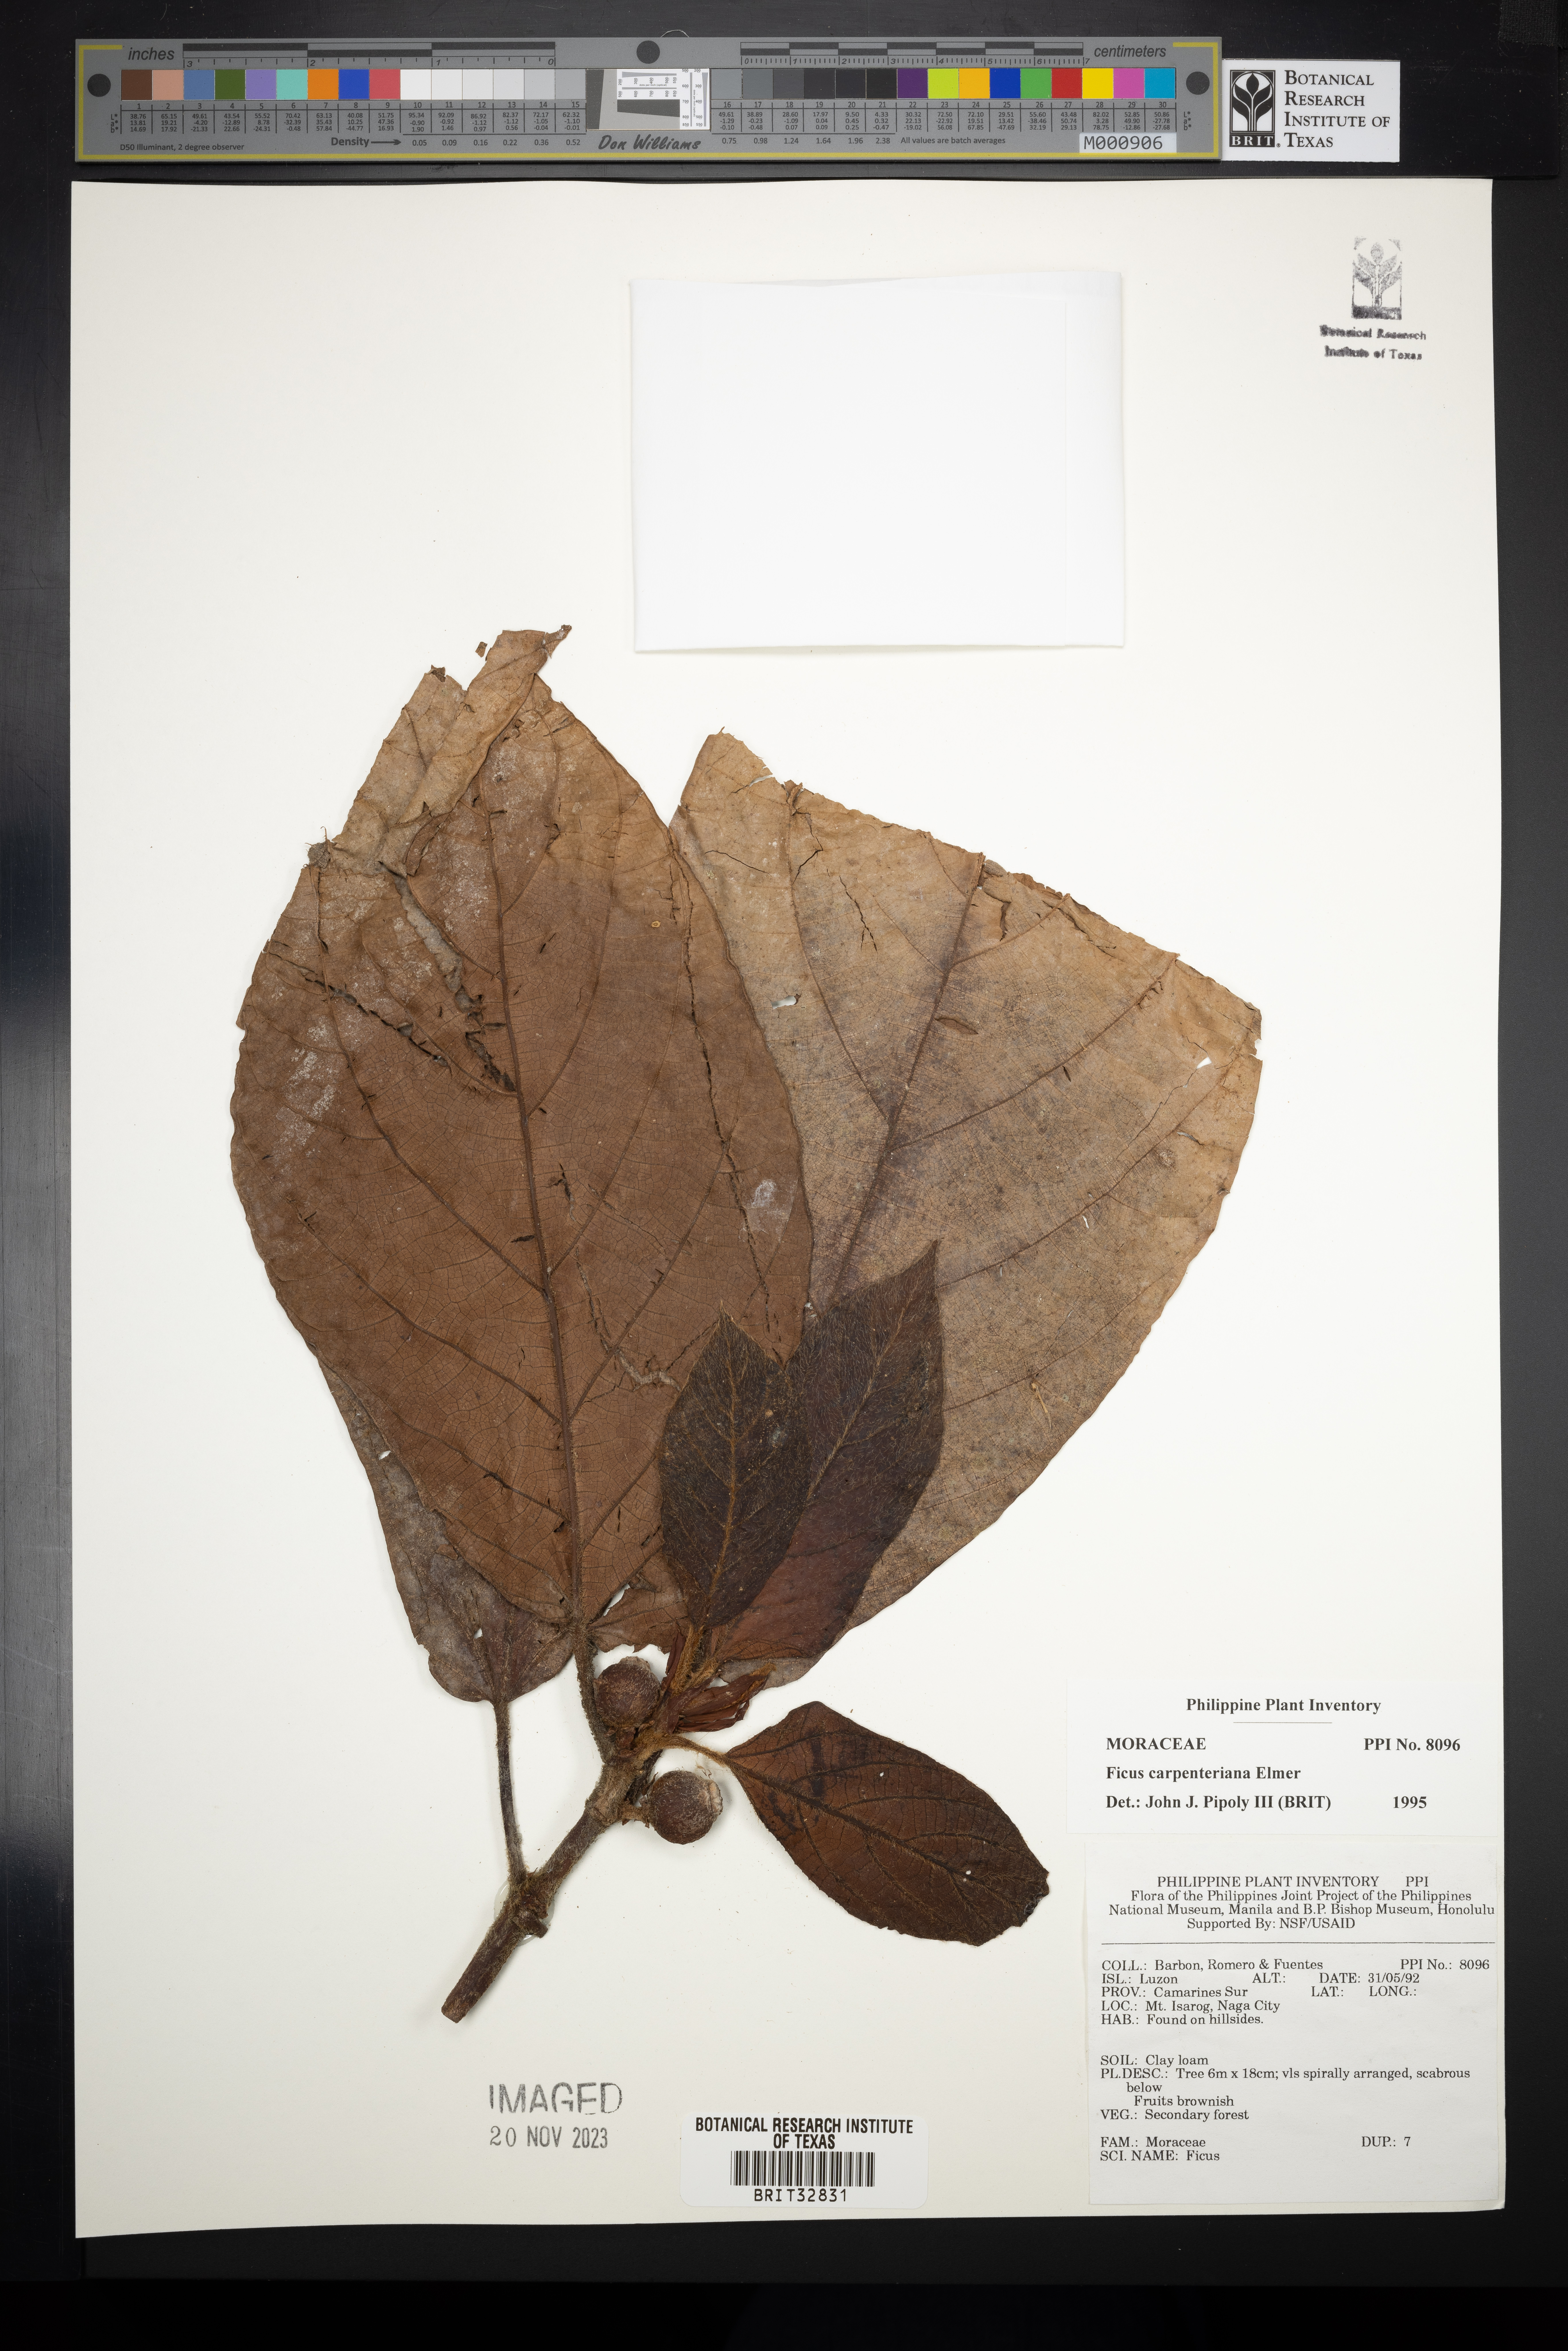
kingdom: Plantae
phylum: Tracheophyta
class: Magnoliopsida
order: Rosales
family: Moraceae
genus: Ficus
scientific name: Ficus carpenteriana
